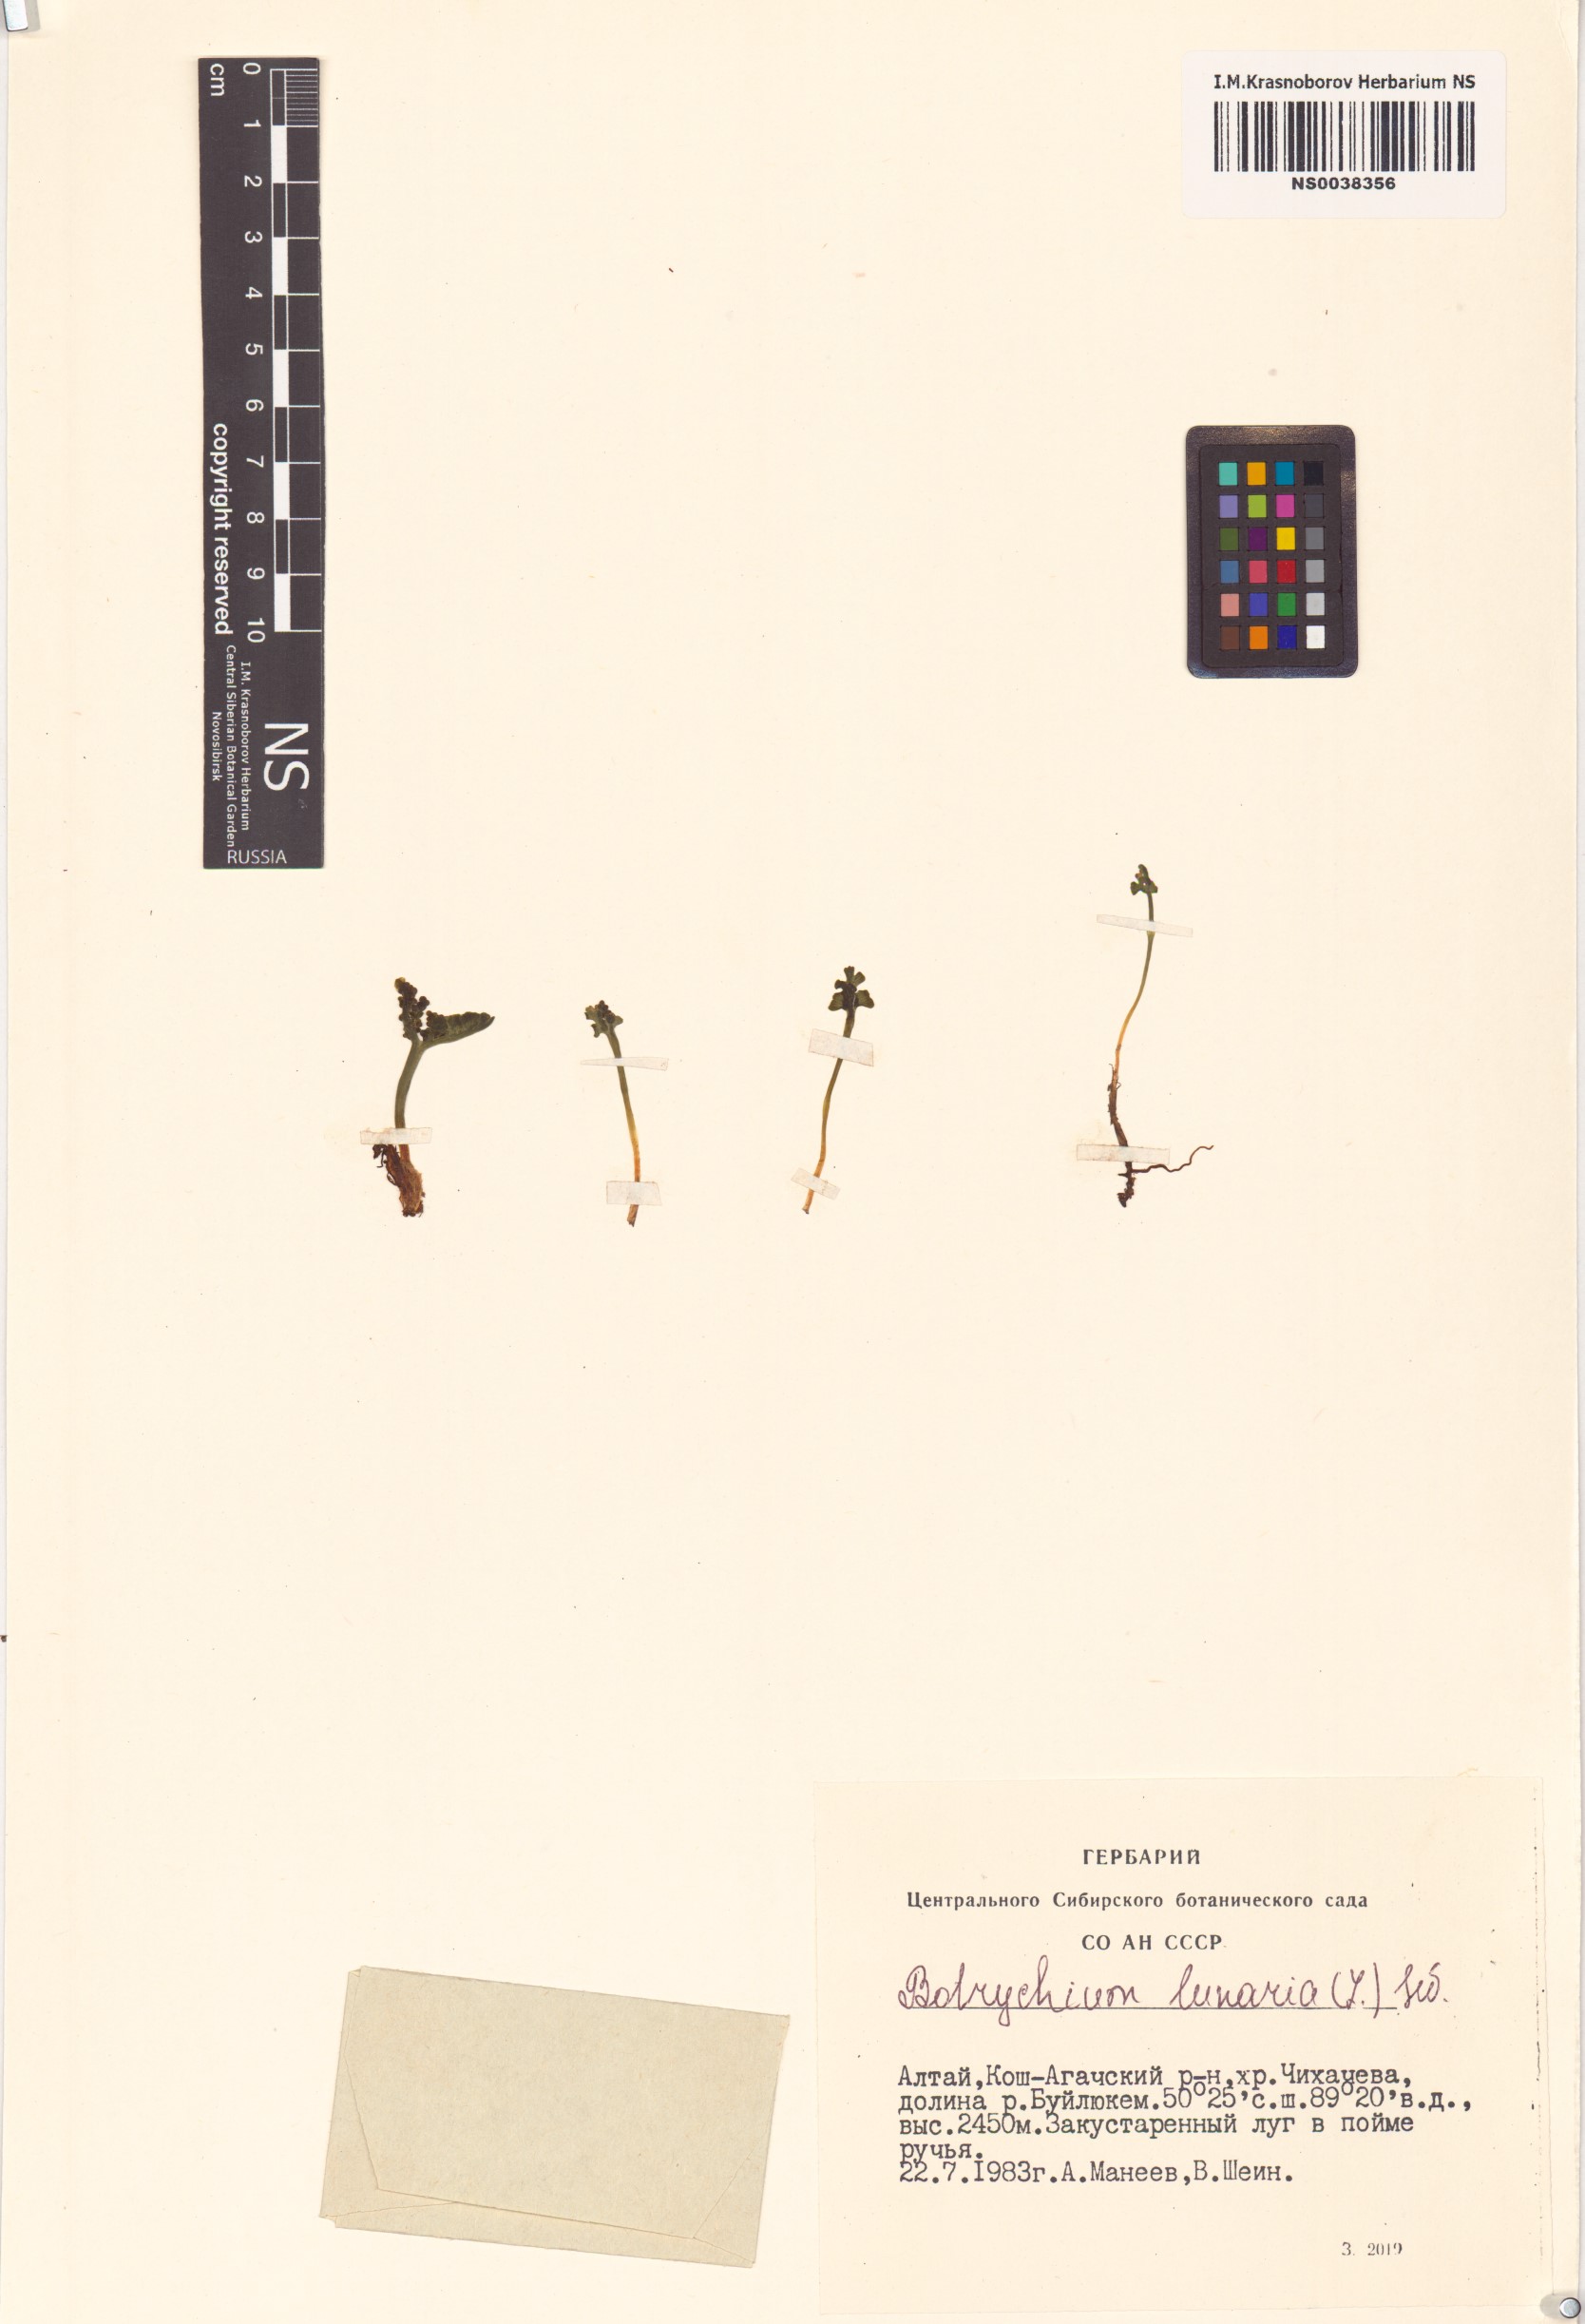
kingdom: Plantae
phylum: Tracheophyta
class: Polypodiopsida
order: Ophioglossales
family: Ophioglossaceae
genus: Botrychium
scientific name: Botrychium lunaria
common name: Moonwort
